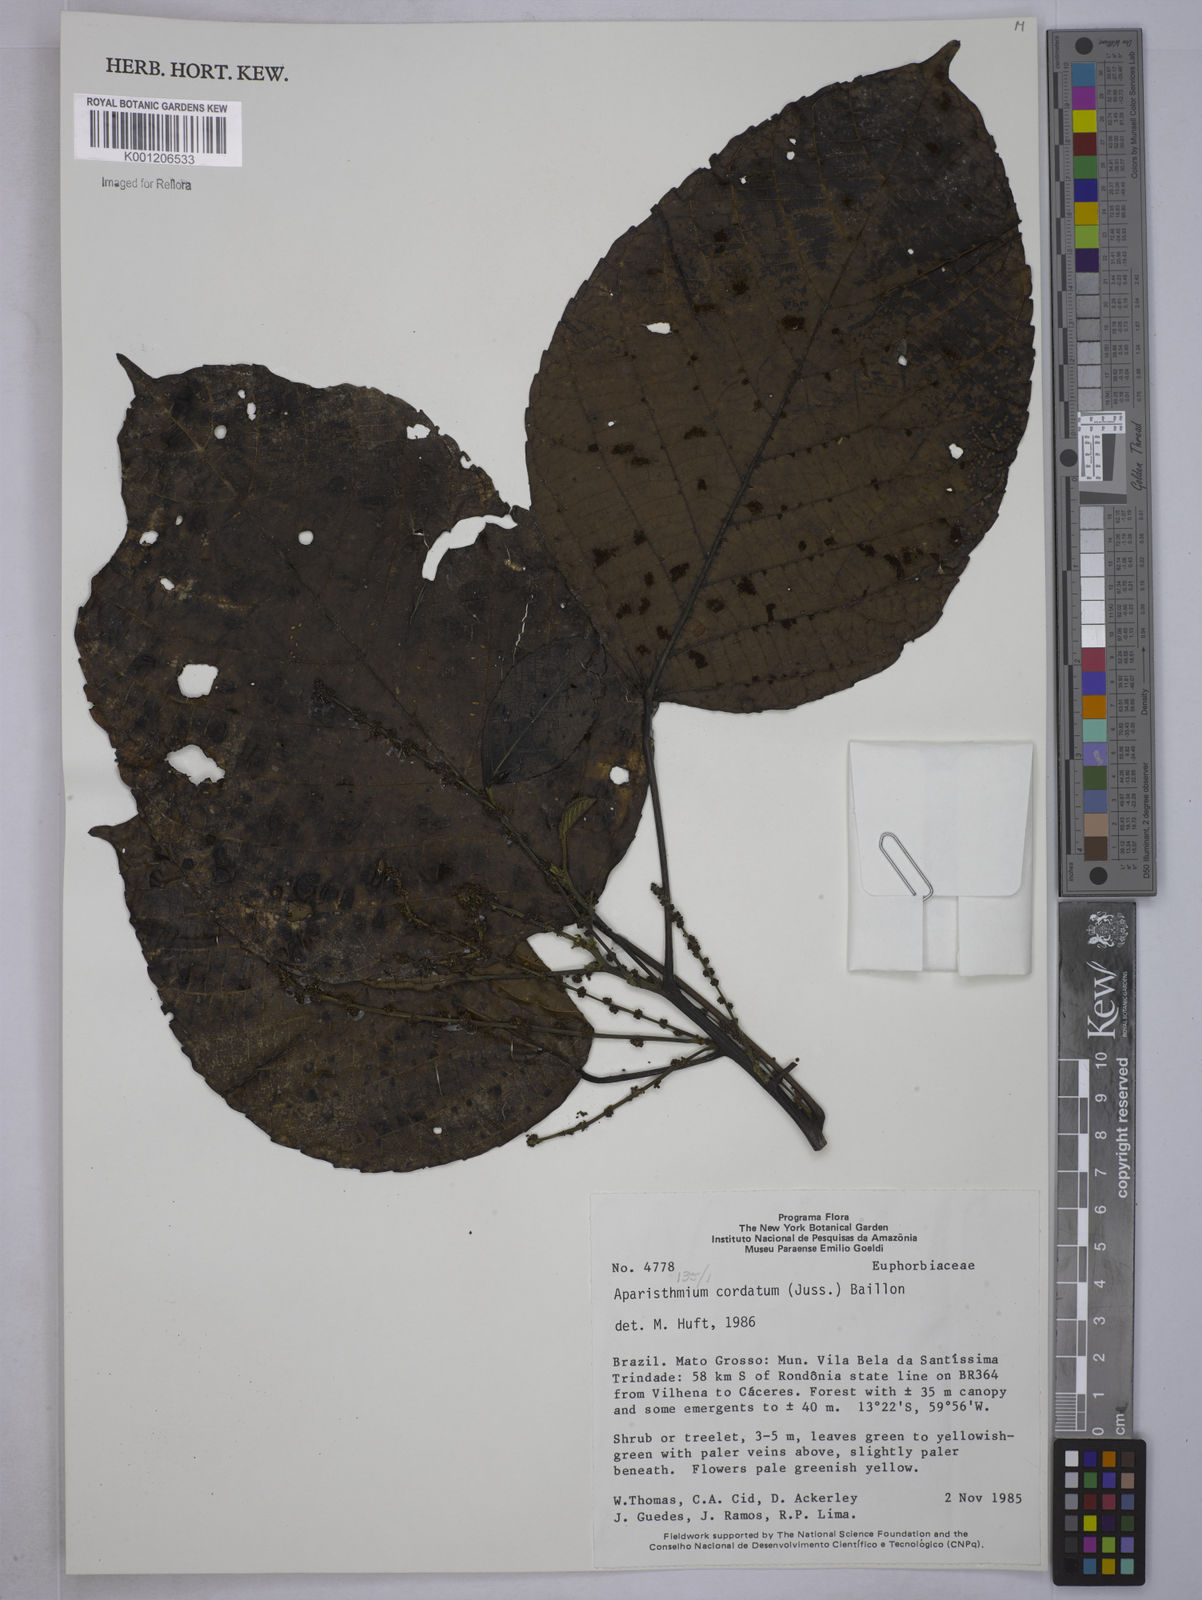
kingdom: Plantae
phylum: Tracheophyta
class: Magnoliopsida
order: Malpighiales
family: Euphorbiaceae
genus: Aparisthmium
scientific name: Aparisthmium cordatum
